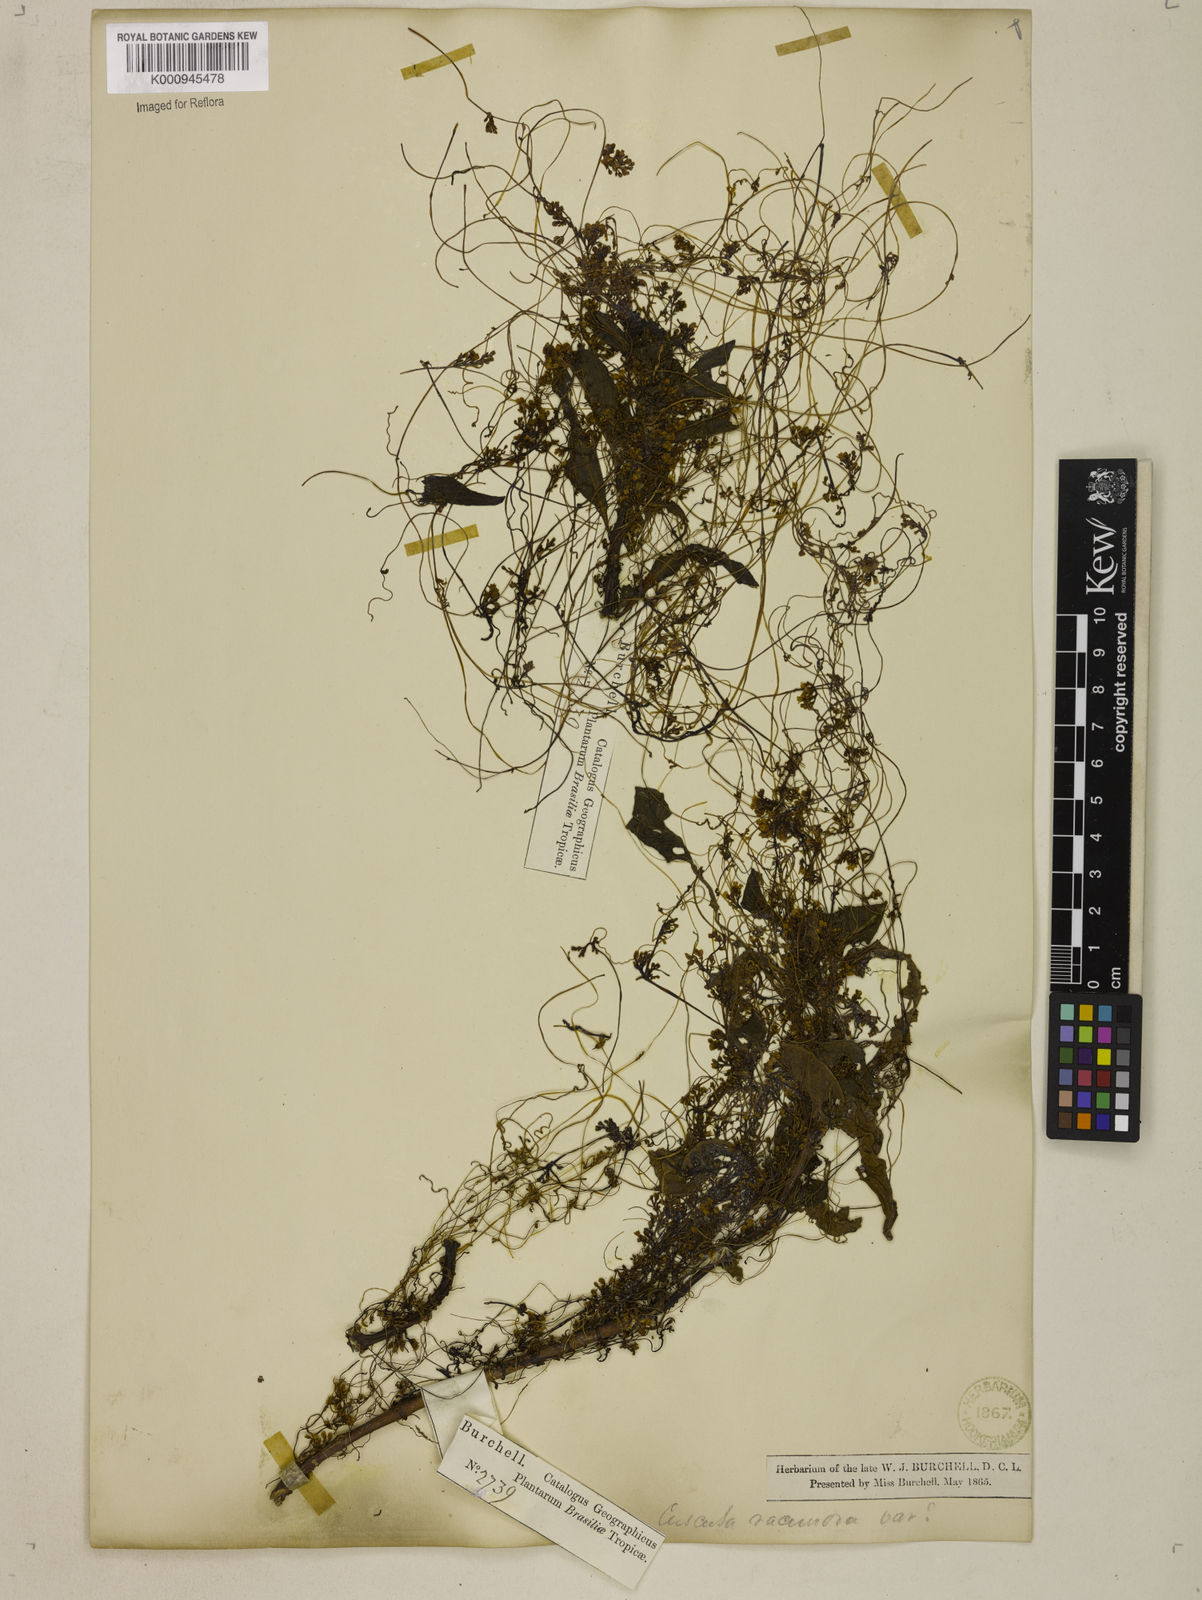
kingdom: Plantae
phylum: Tracheophyta
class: Magnoliopsida
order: Solanales
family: Convolvulaceae
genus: Cuscuta
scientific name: Cuscuta racemosa
